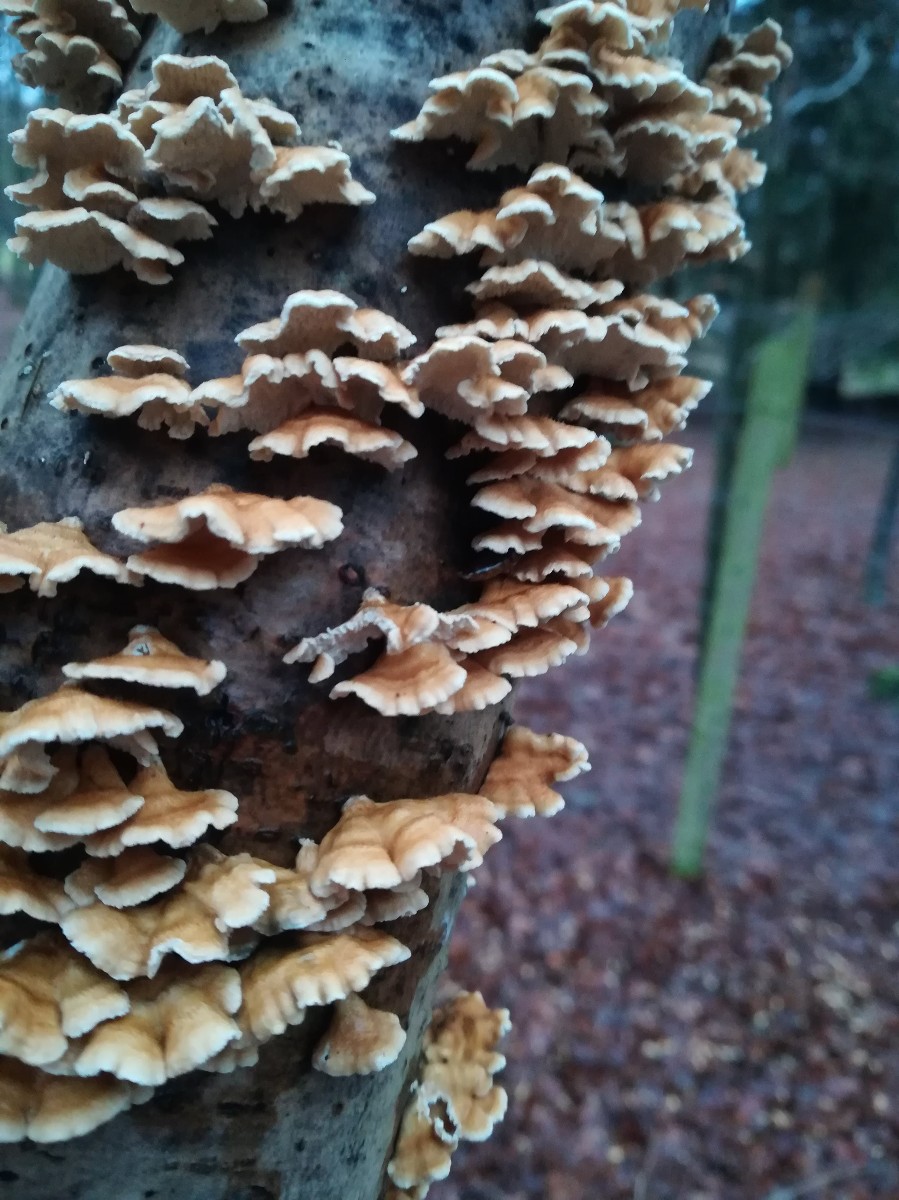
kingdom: Fungi
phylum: Basidiomycota
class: Agaricomycetes
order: Amylocorticiales
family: Amylocorticiaceae
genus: Plicaturopsis
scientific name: Plicaturopsis crispa
